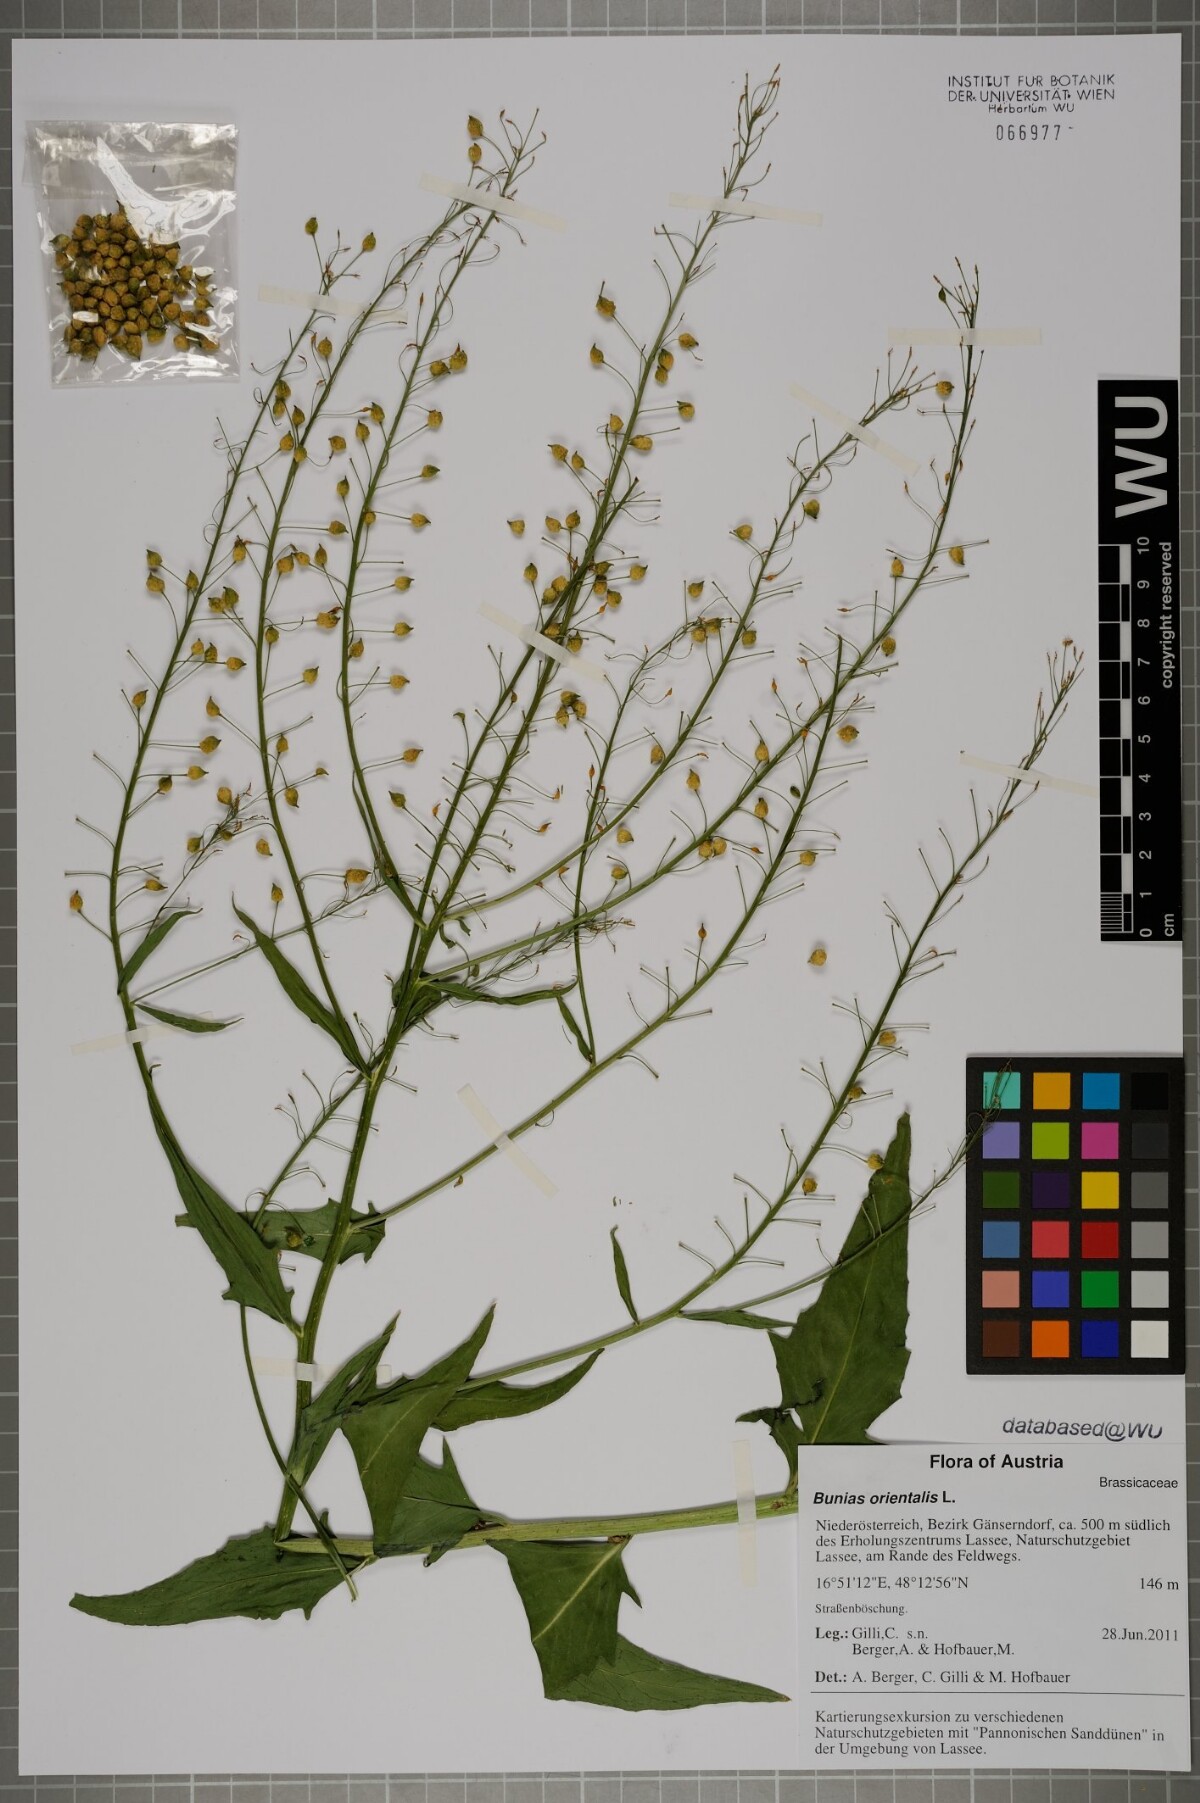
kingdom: Plantae
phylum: Tracheophyta
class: Magnoliopsida
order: Brassicales
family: Brassicaceae
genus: Bunias
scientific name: Bunias orientalis
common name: Warty-cabbage
